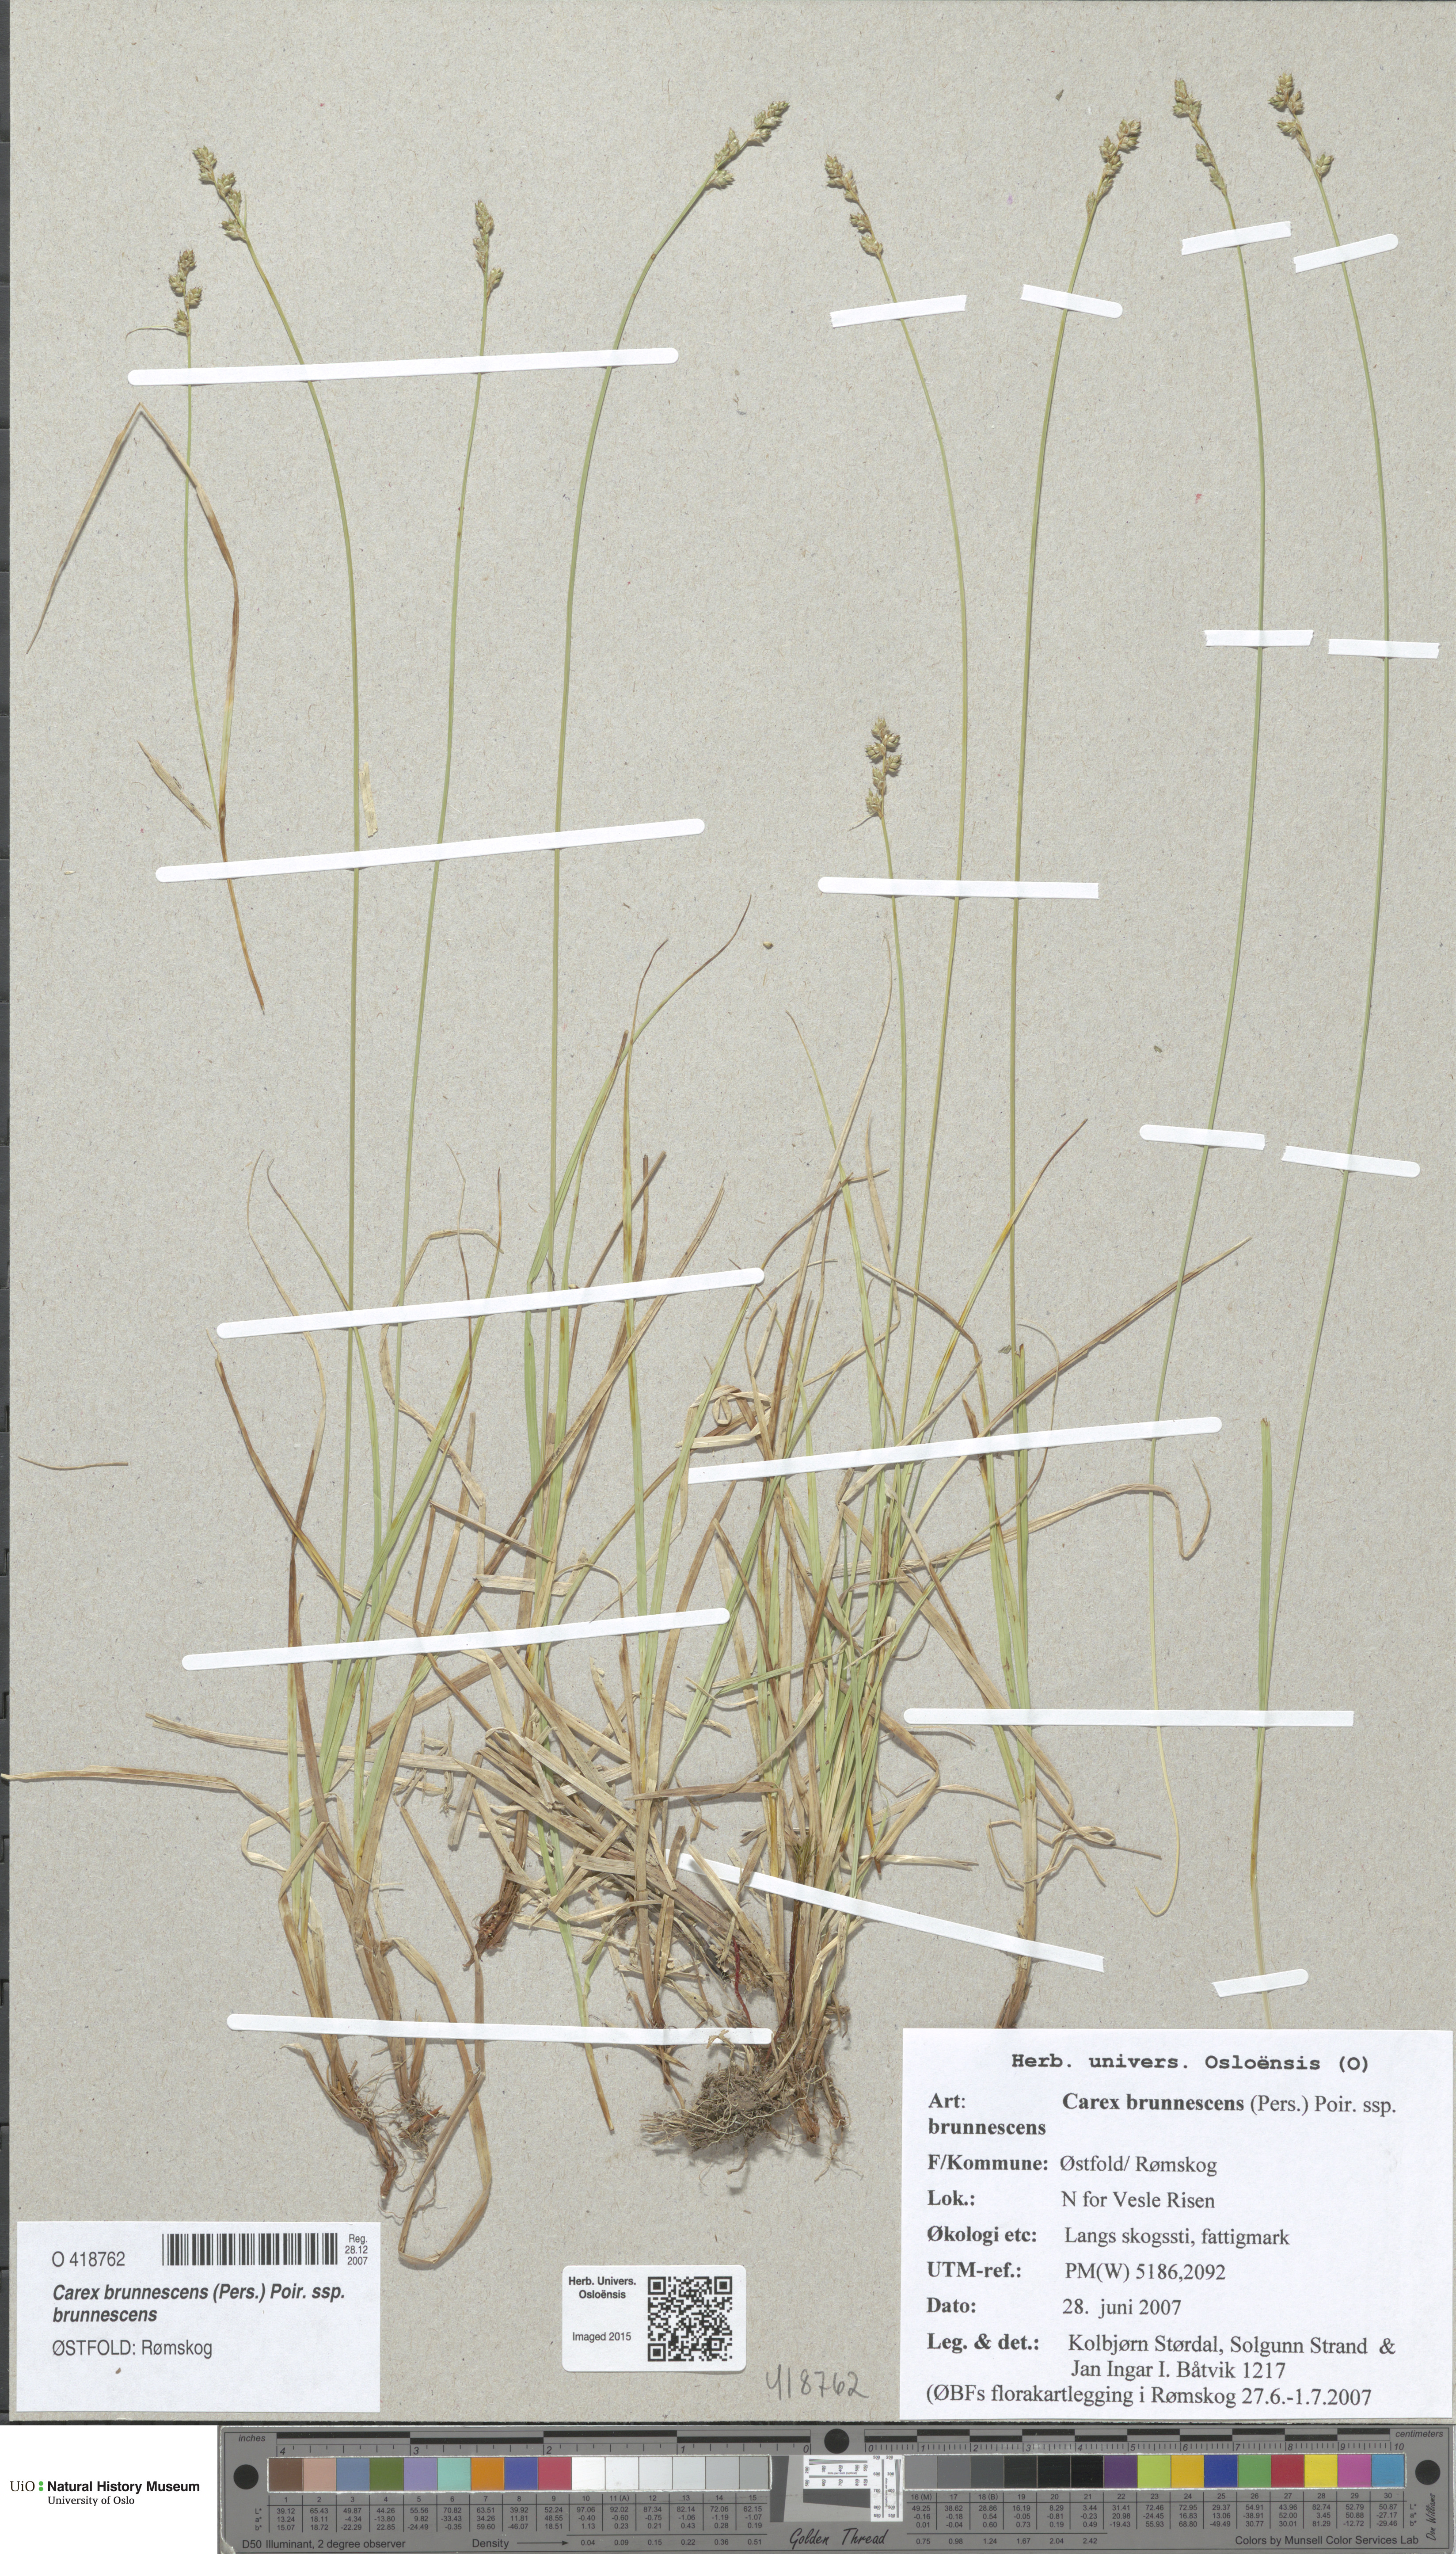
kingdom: Plantae
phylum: Tracheophyta
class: Liliopsida
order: Poales
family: Cyperaceae
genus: Carex
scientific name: Carex brunnescens
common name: Brown sedge
